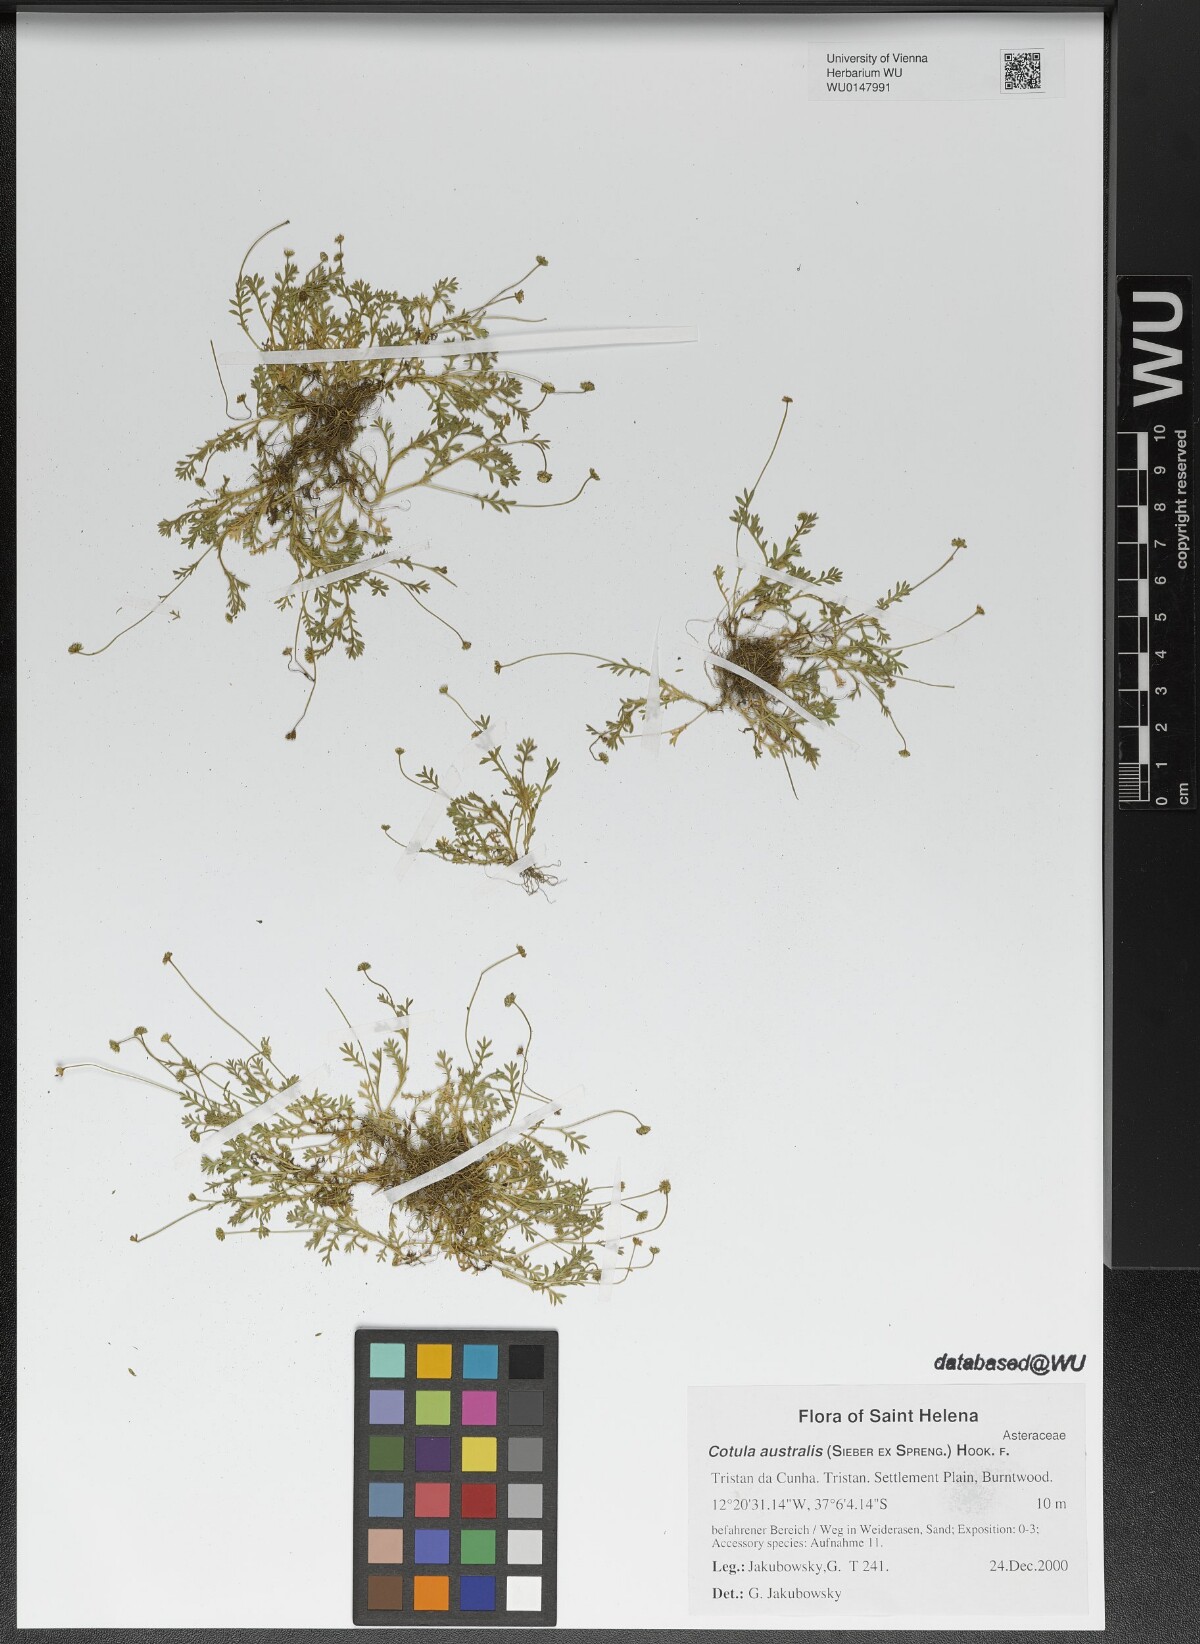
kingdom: Plantae
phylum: Tracheophyta
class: Magnoliopsida
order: Asterales
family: Asteraceae
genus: Cotula
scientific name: Cotula australis
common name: Australian waterbuttons
